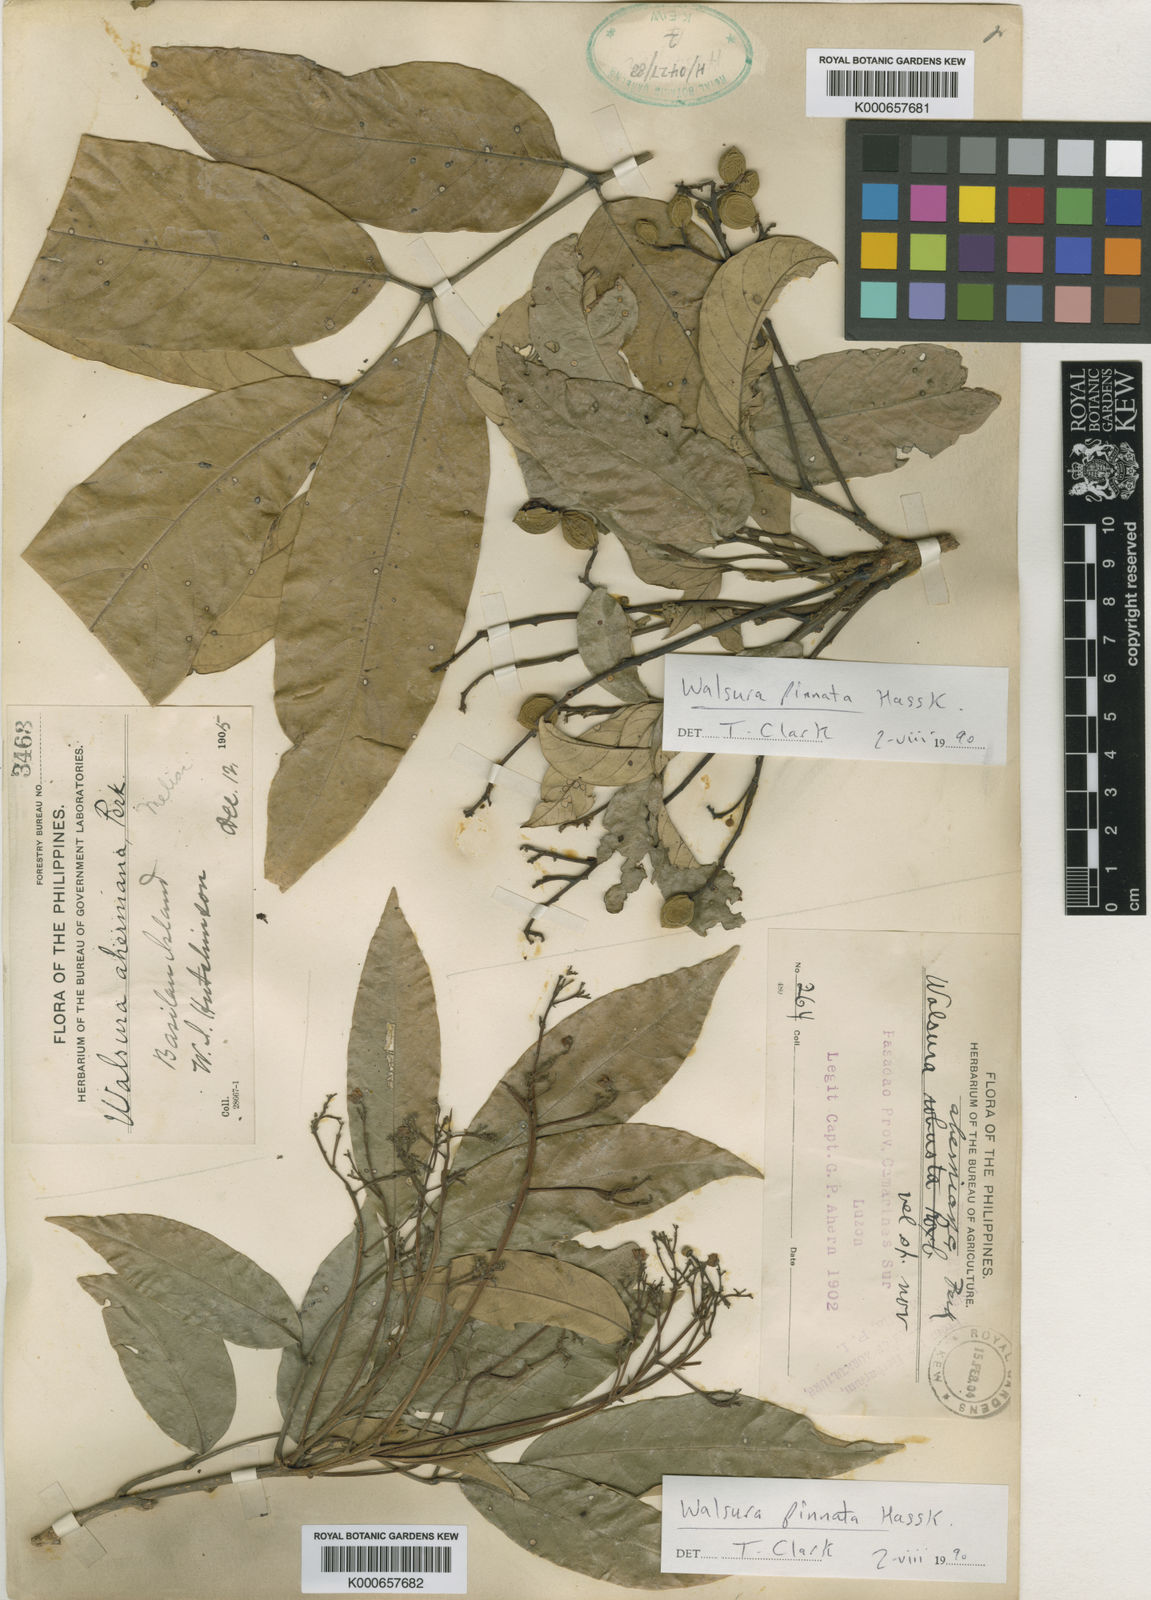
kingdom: Plantae
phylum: Tracheophyta
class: Magnoliopsida
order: Sapindales
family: Meliaceae
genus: Walsura
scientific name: Walsura pinnata
